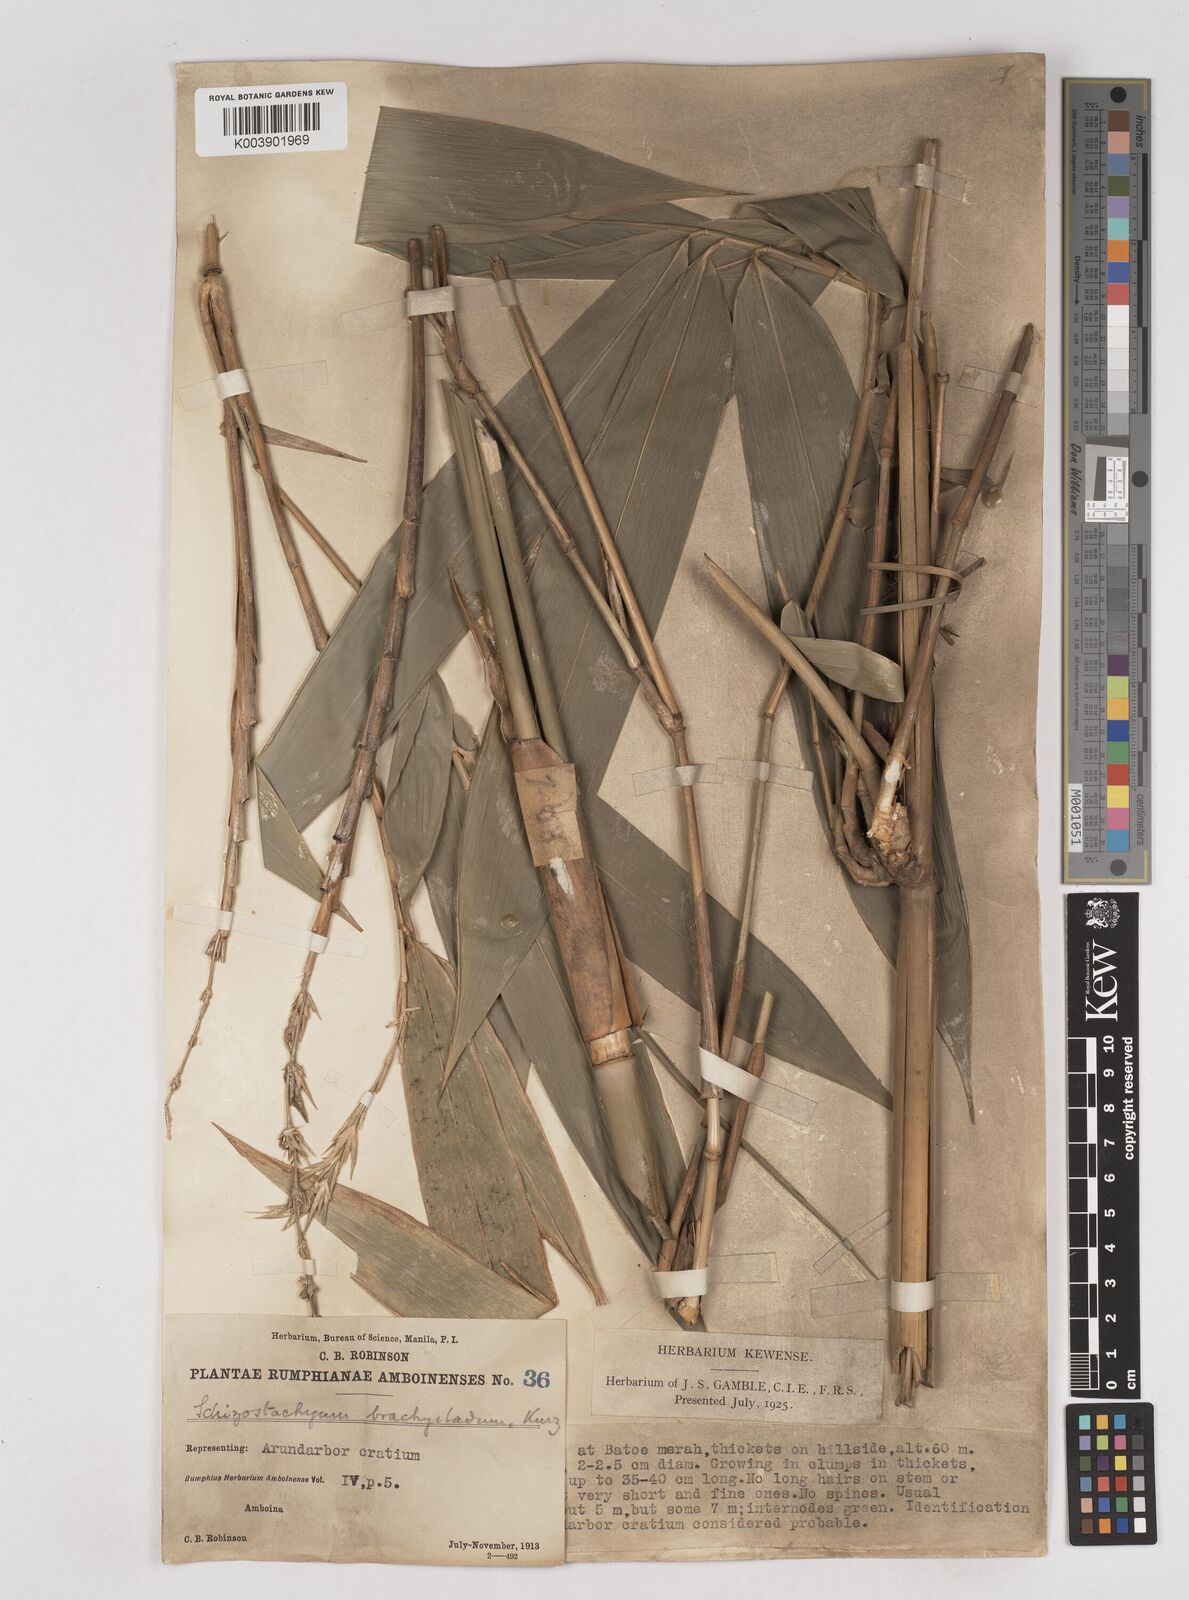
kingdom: Plantae
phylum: Tracheophyta
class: Liliopsida
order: Poales
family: Poaceae
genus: Schizostachyum
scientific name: Schizostachyum brachycladum
